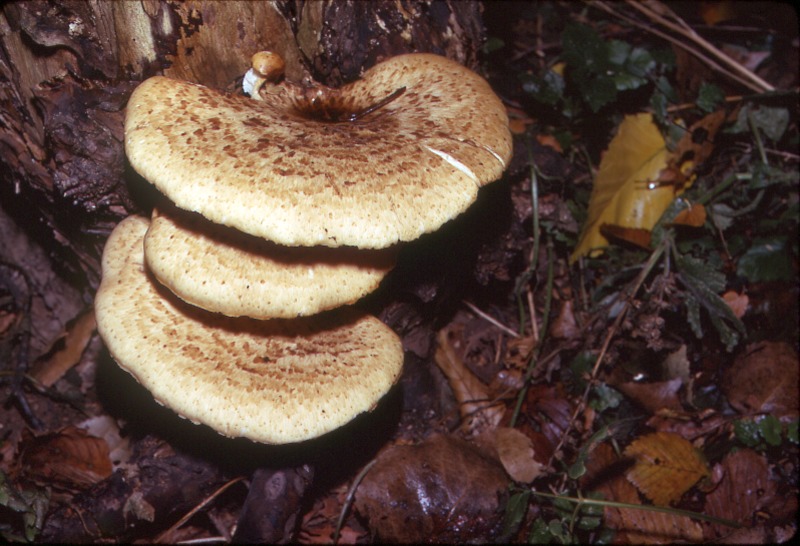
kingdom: Fungi
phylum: Basidiomycota
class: Agaricomycetes
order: Polyporales
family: Polyporaceae
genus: Cerioporus
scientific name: Cerioporus squamosus
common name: Dryad's saddle
